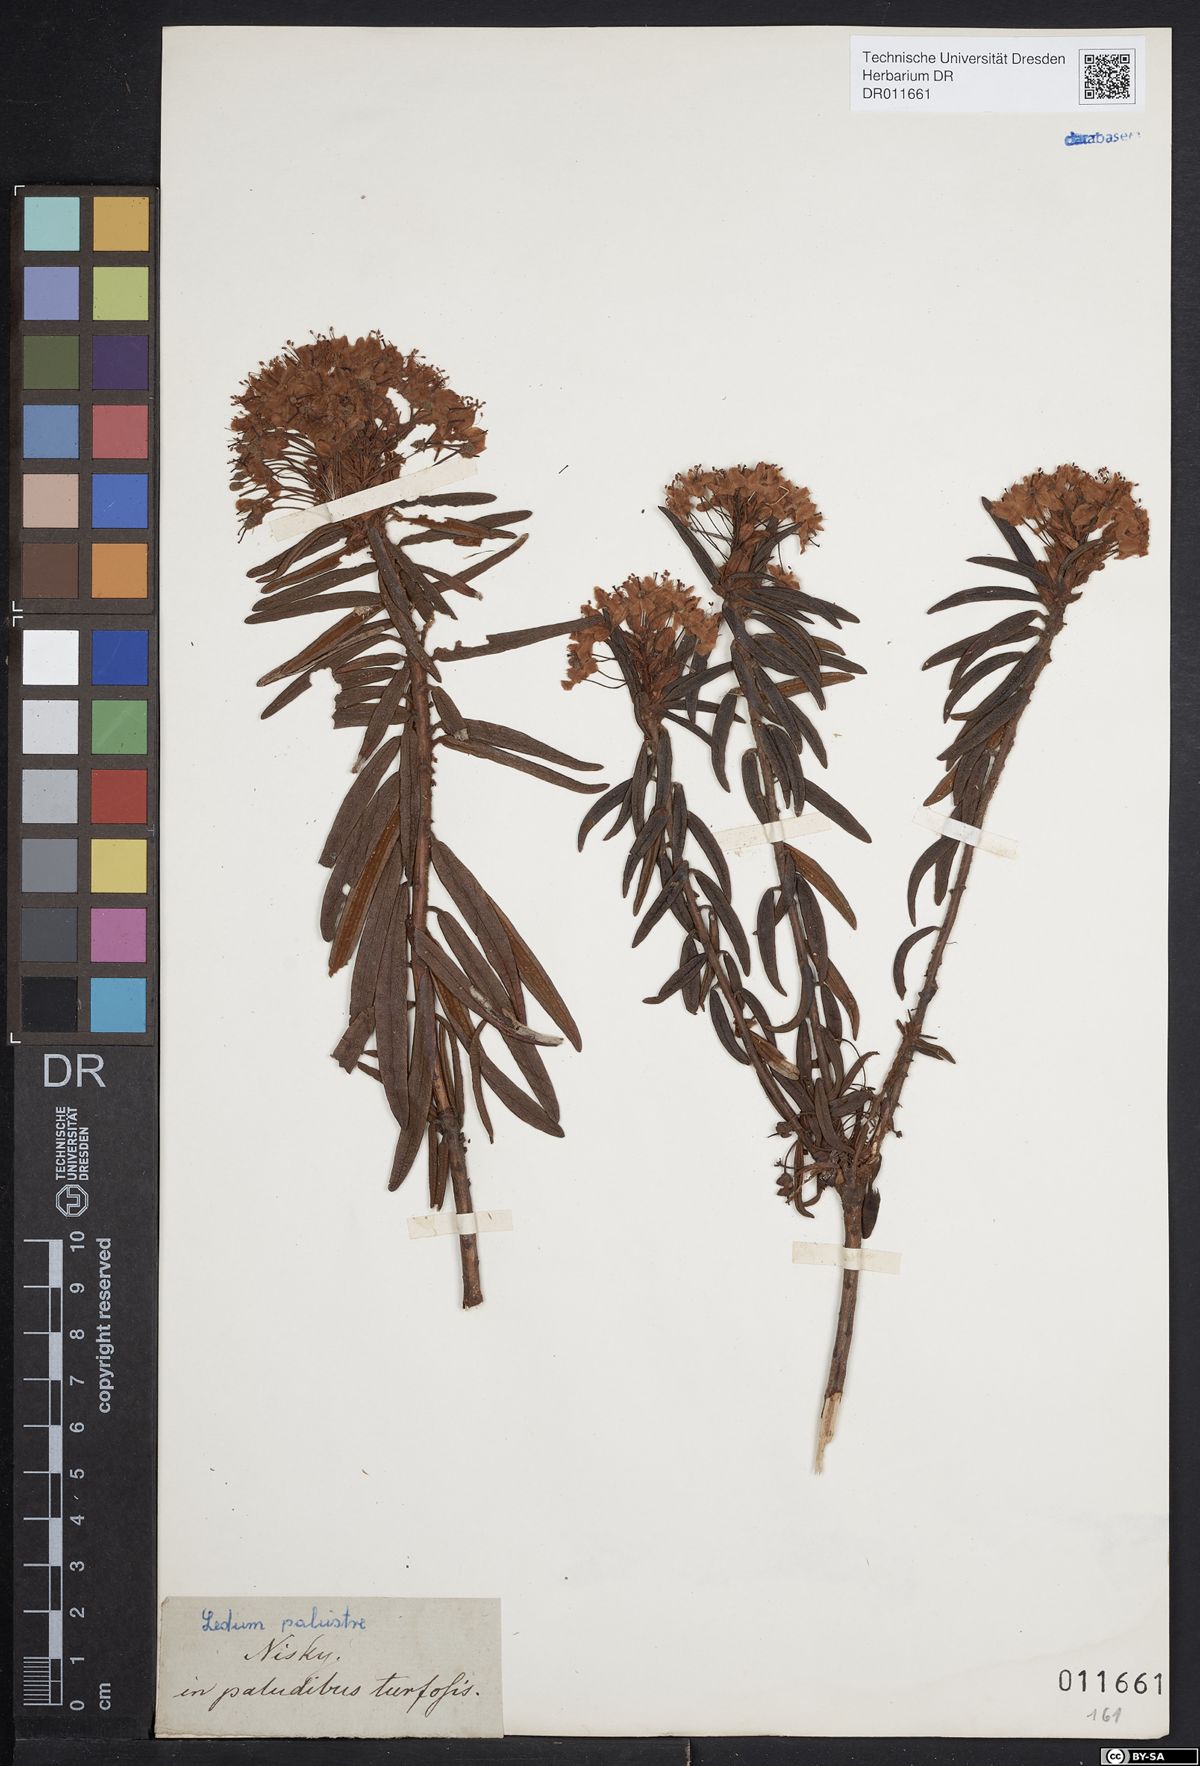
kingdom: Plantae
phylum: Tracheophyta
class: Magnoliopsida
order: Ericales
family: Ericaceae
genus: Rhododendron
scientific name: Rhododendron tomentosum
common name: Marsh labrador tea
